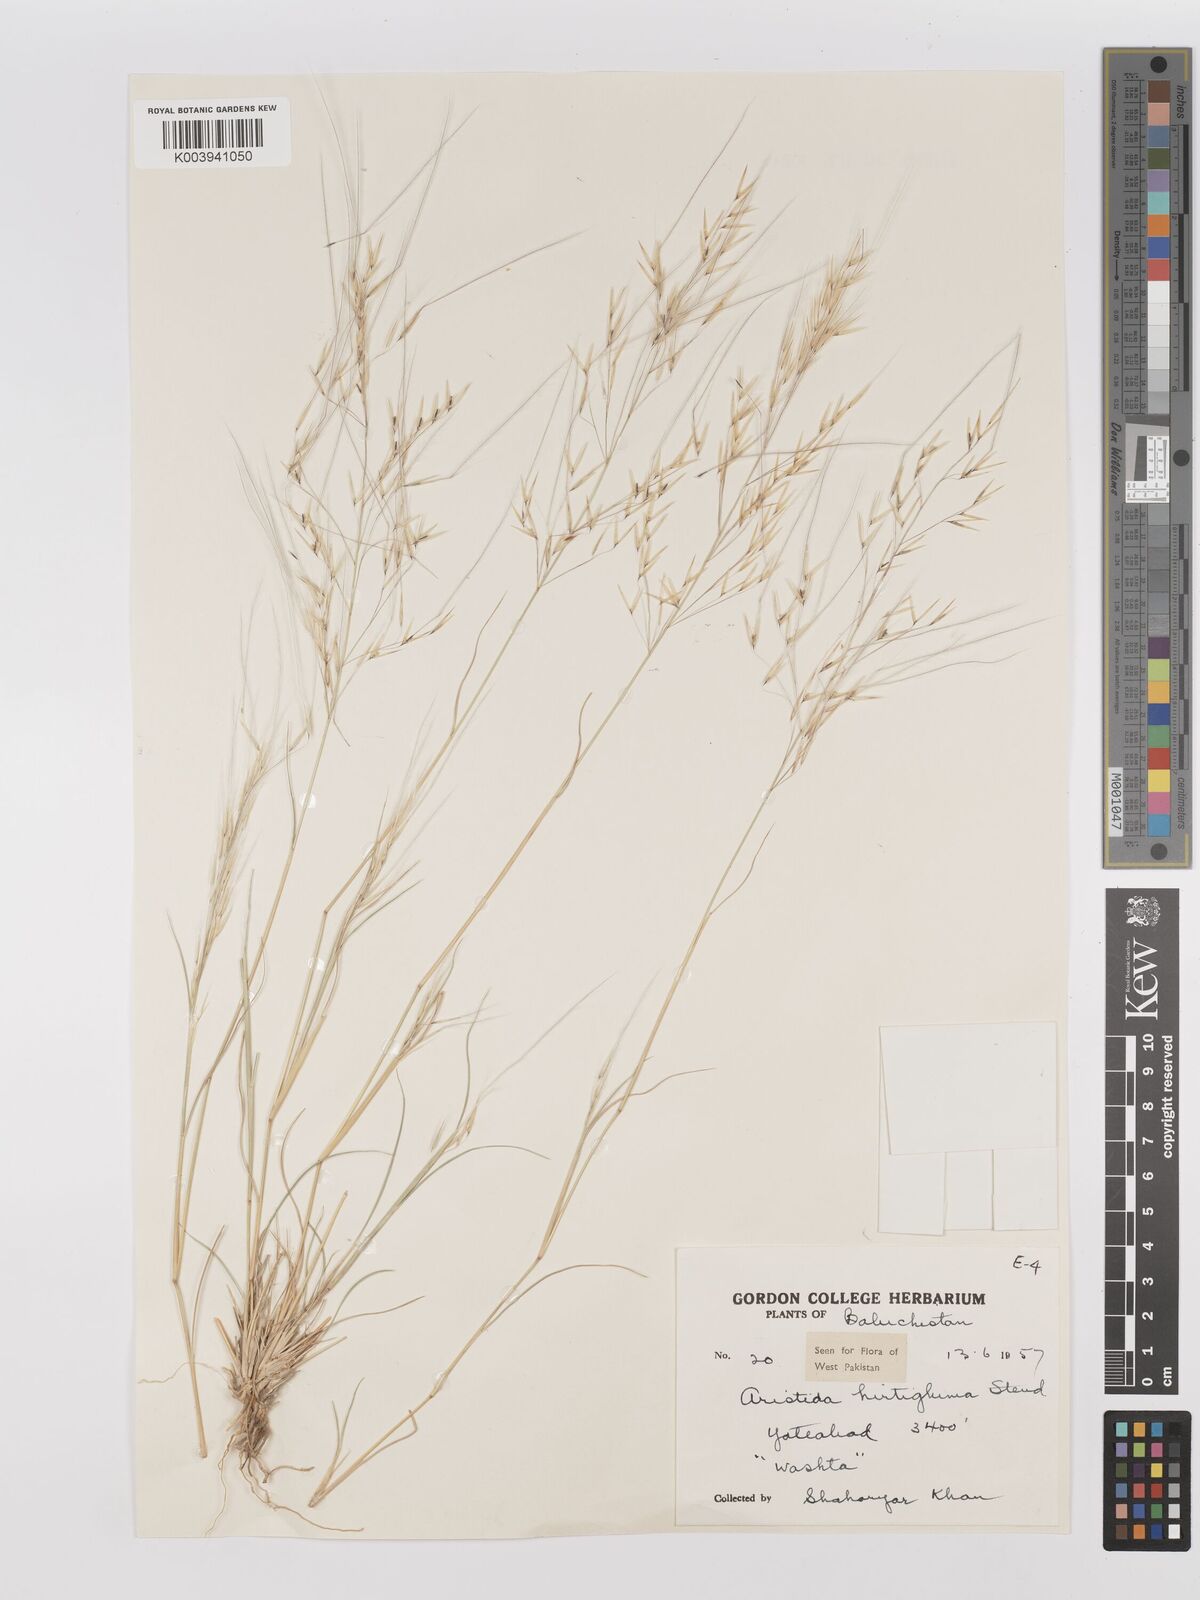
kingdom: Plantae
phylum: Tracheophyta
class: Liliopsida
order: Poales
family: Poaceae
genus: Stipagrostis
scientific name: Stipagrostis hirtigluma
